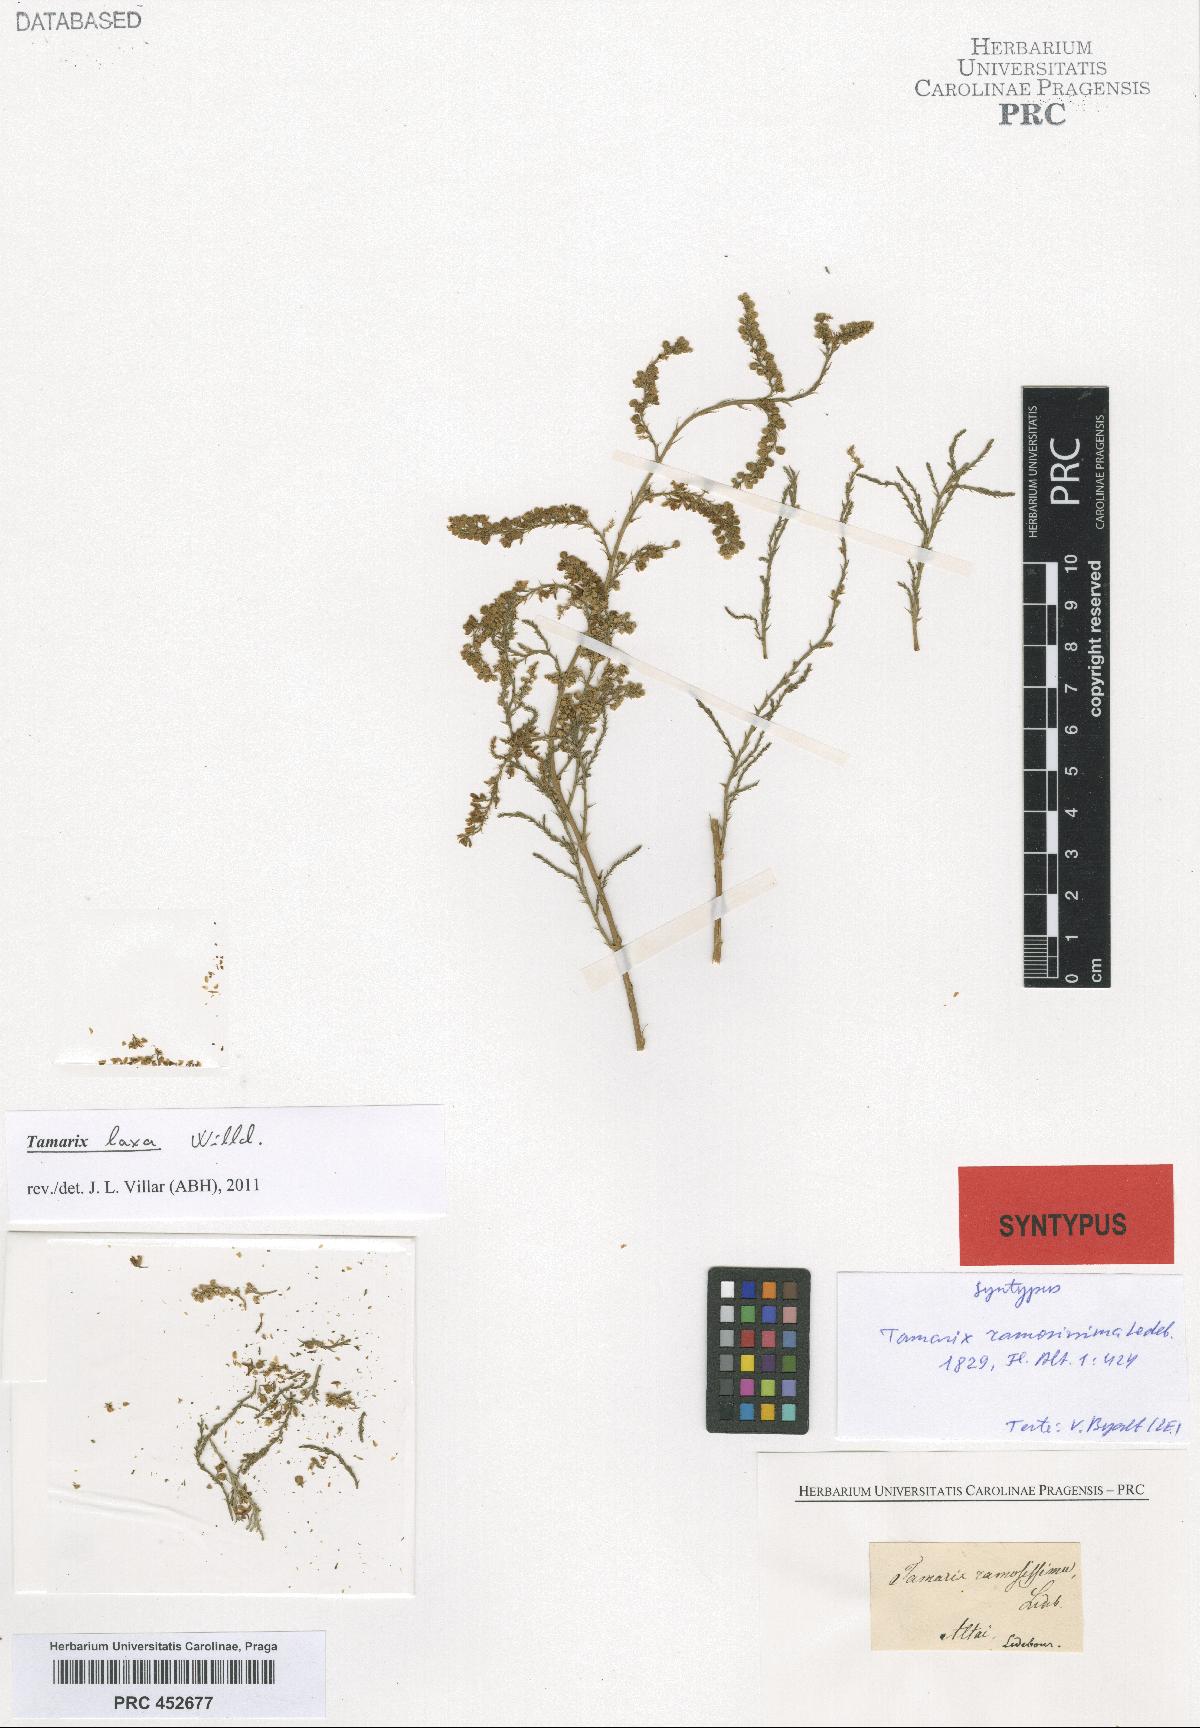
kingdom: Plantae
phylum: Tracheophyta
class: Magnoliopsida
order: Caryophyllales
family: Tamaricaceae
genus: Tamarix
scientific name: Tamarix ramosissima
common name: Pink tamarisk
